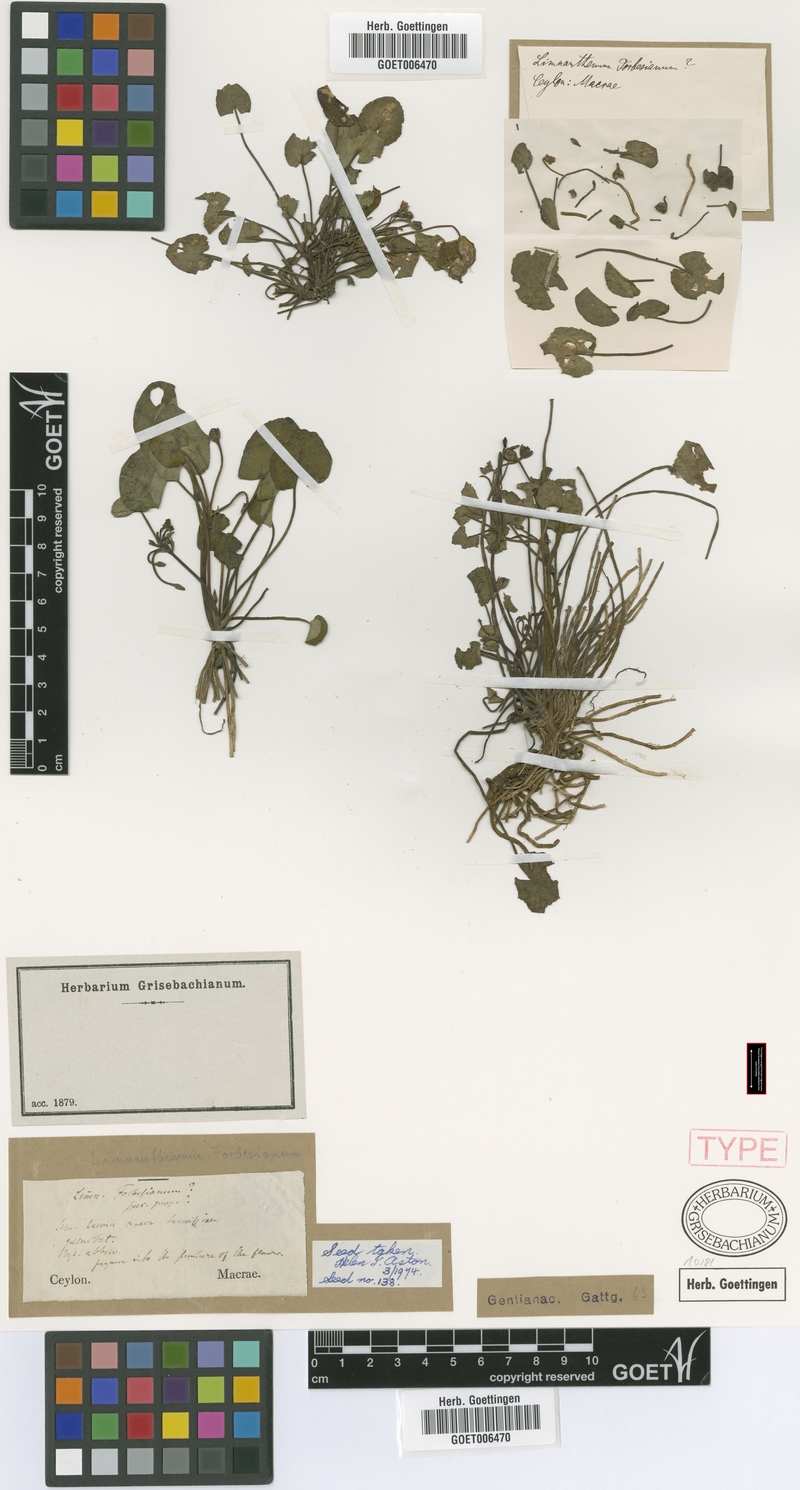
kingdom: Plantae
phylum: Tracheophyta
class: Magnoliopsida
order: Asterales
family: Menyanthaceae
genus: Nymphoides
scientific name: Nymphoides forbesiana
